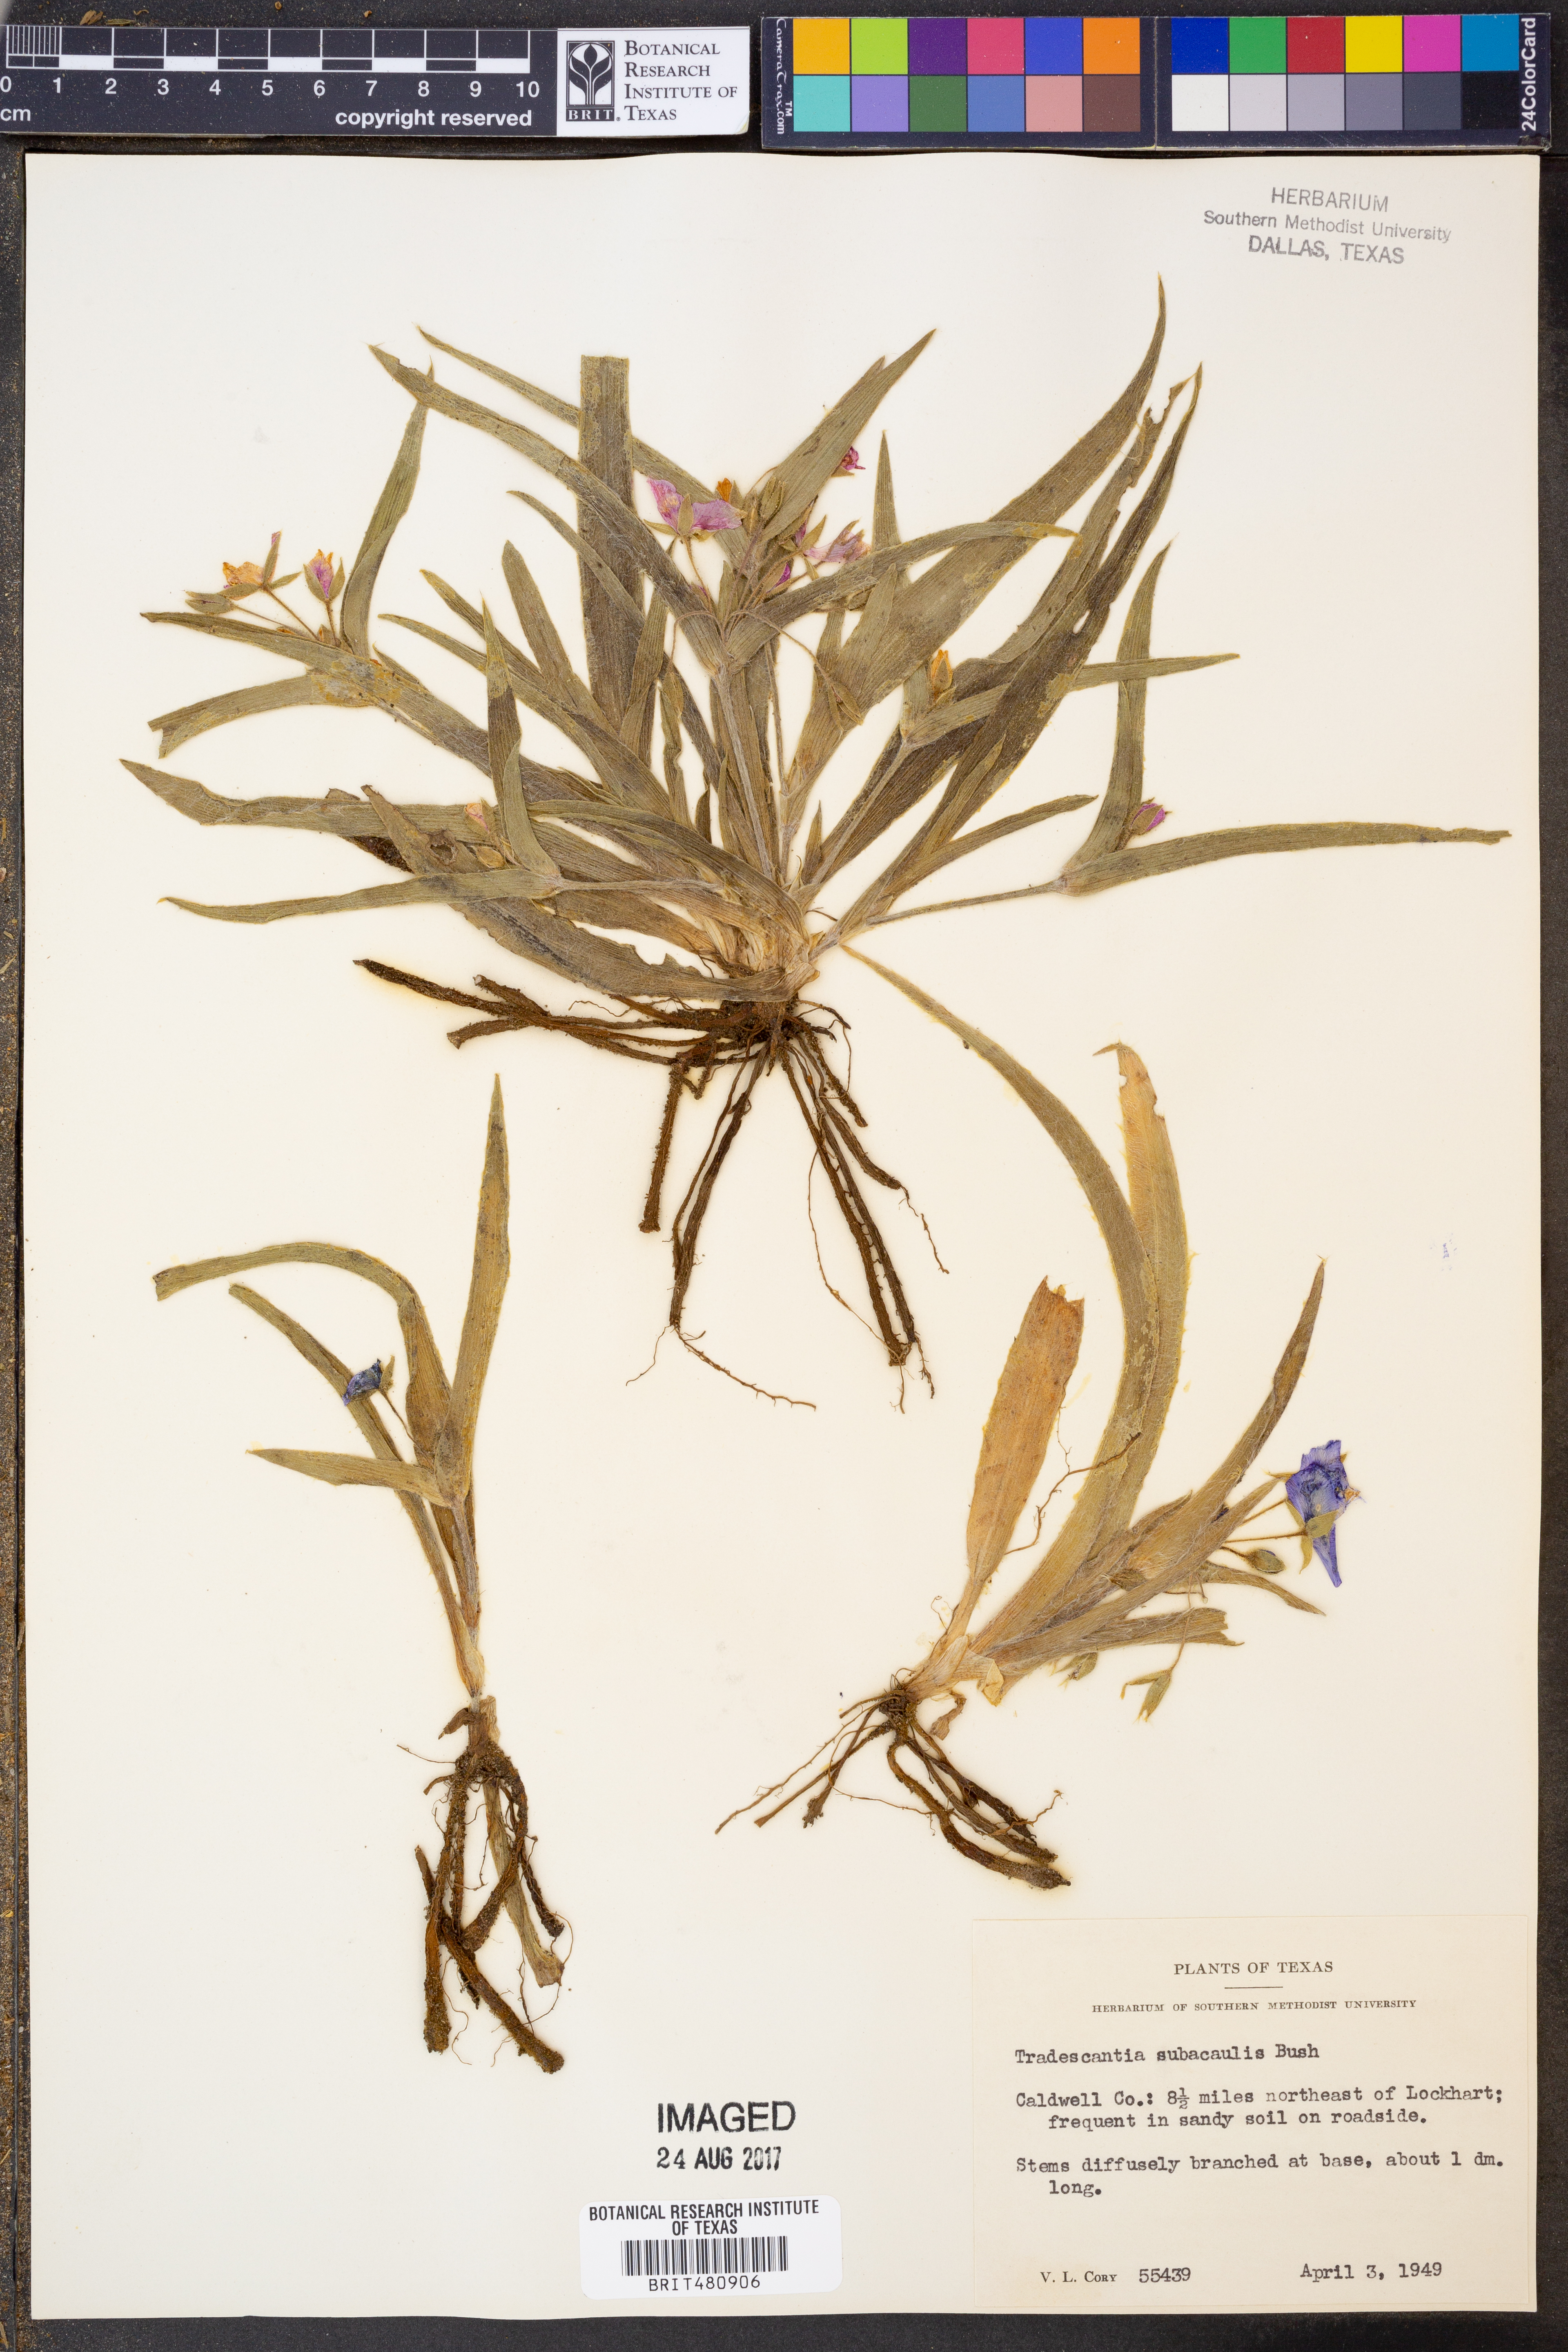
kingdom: Plantae
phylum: Tracheophyta
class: Liliopsida
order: Commelinales
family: Commelinaceae
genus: Tradescantia
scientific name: Tradescantia subacaulis
